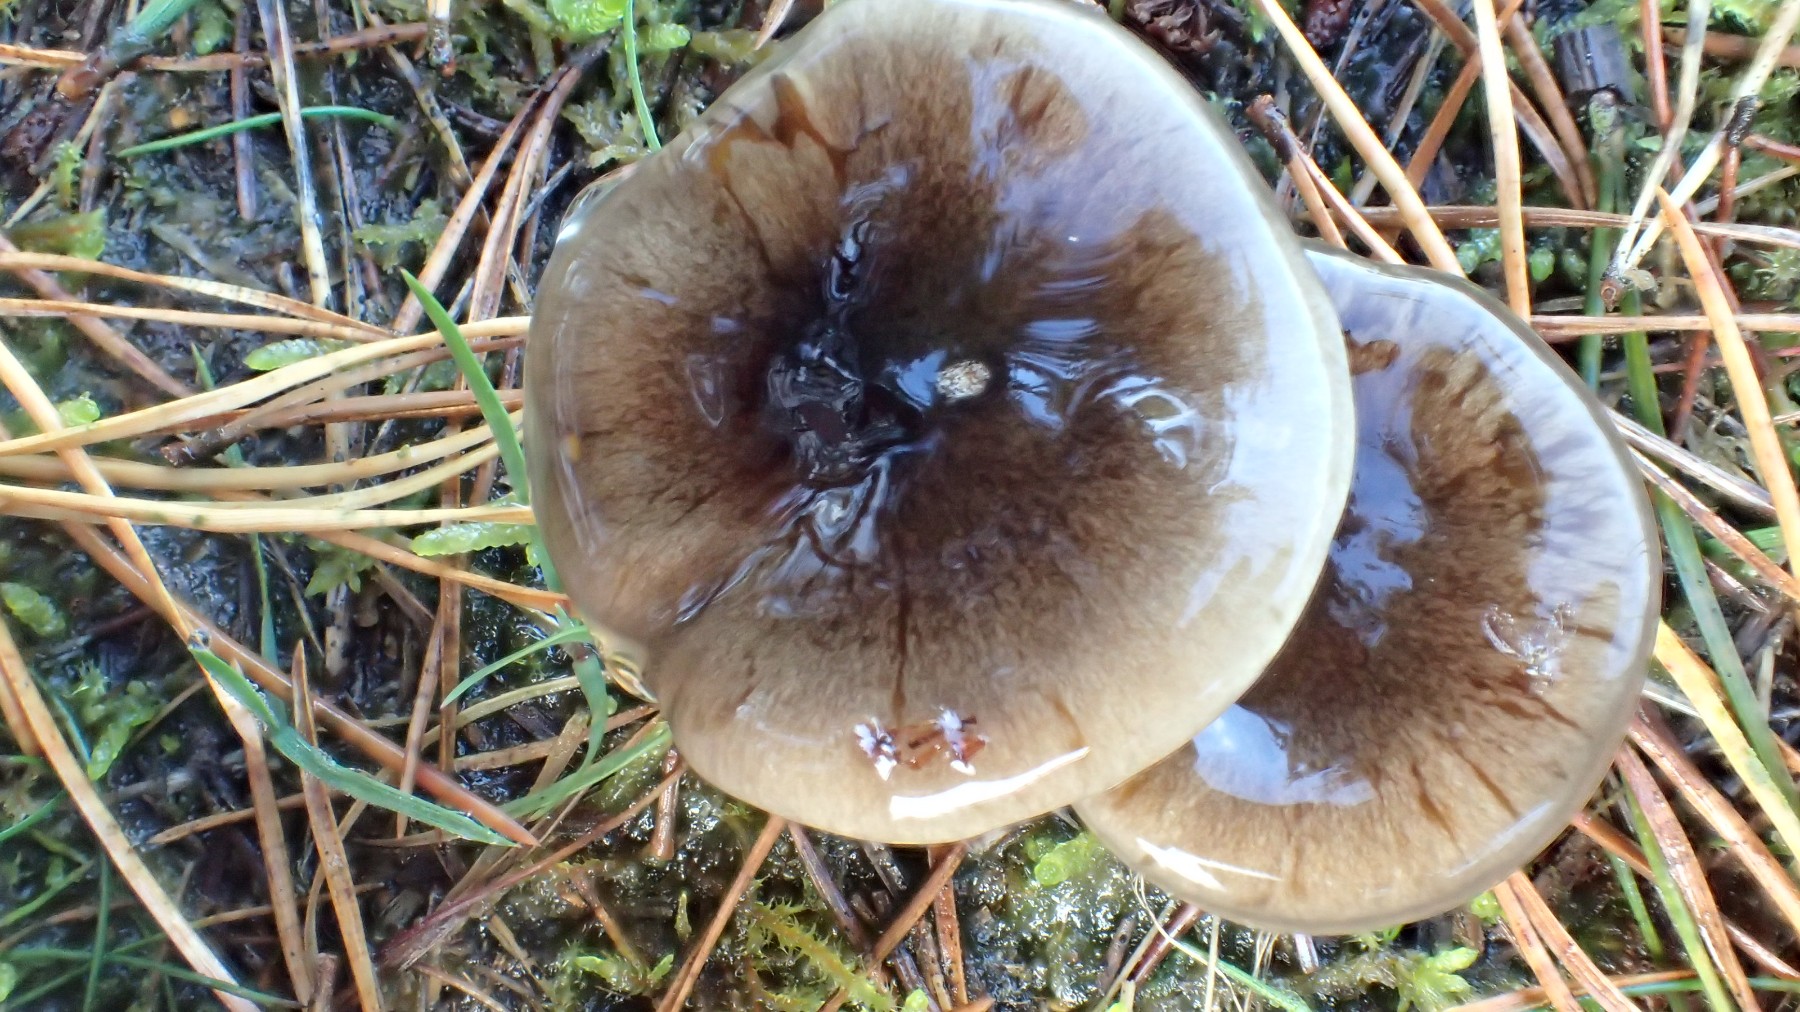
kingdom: Fungi
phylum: Basidiomycota
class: Agaricomycetes
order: Agaricales
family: Hygrophoraceae
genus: Hygrophorus
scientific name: Hygrophorus hypothejus
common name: frost-sneglehat
